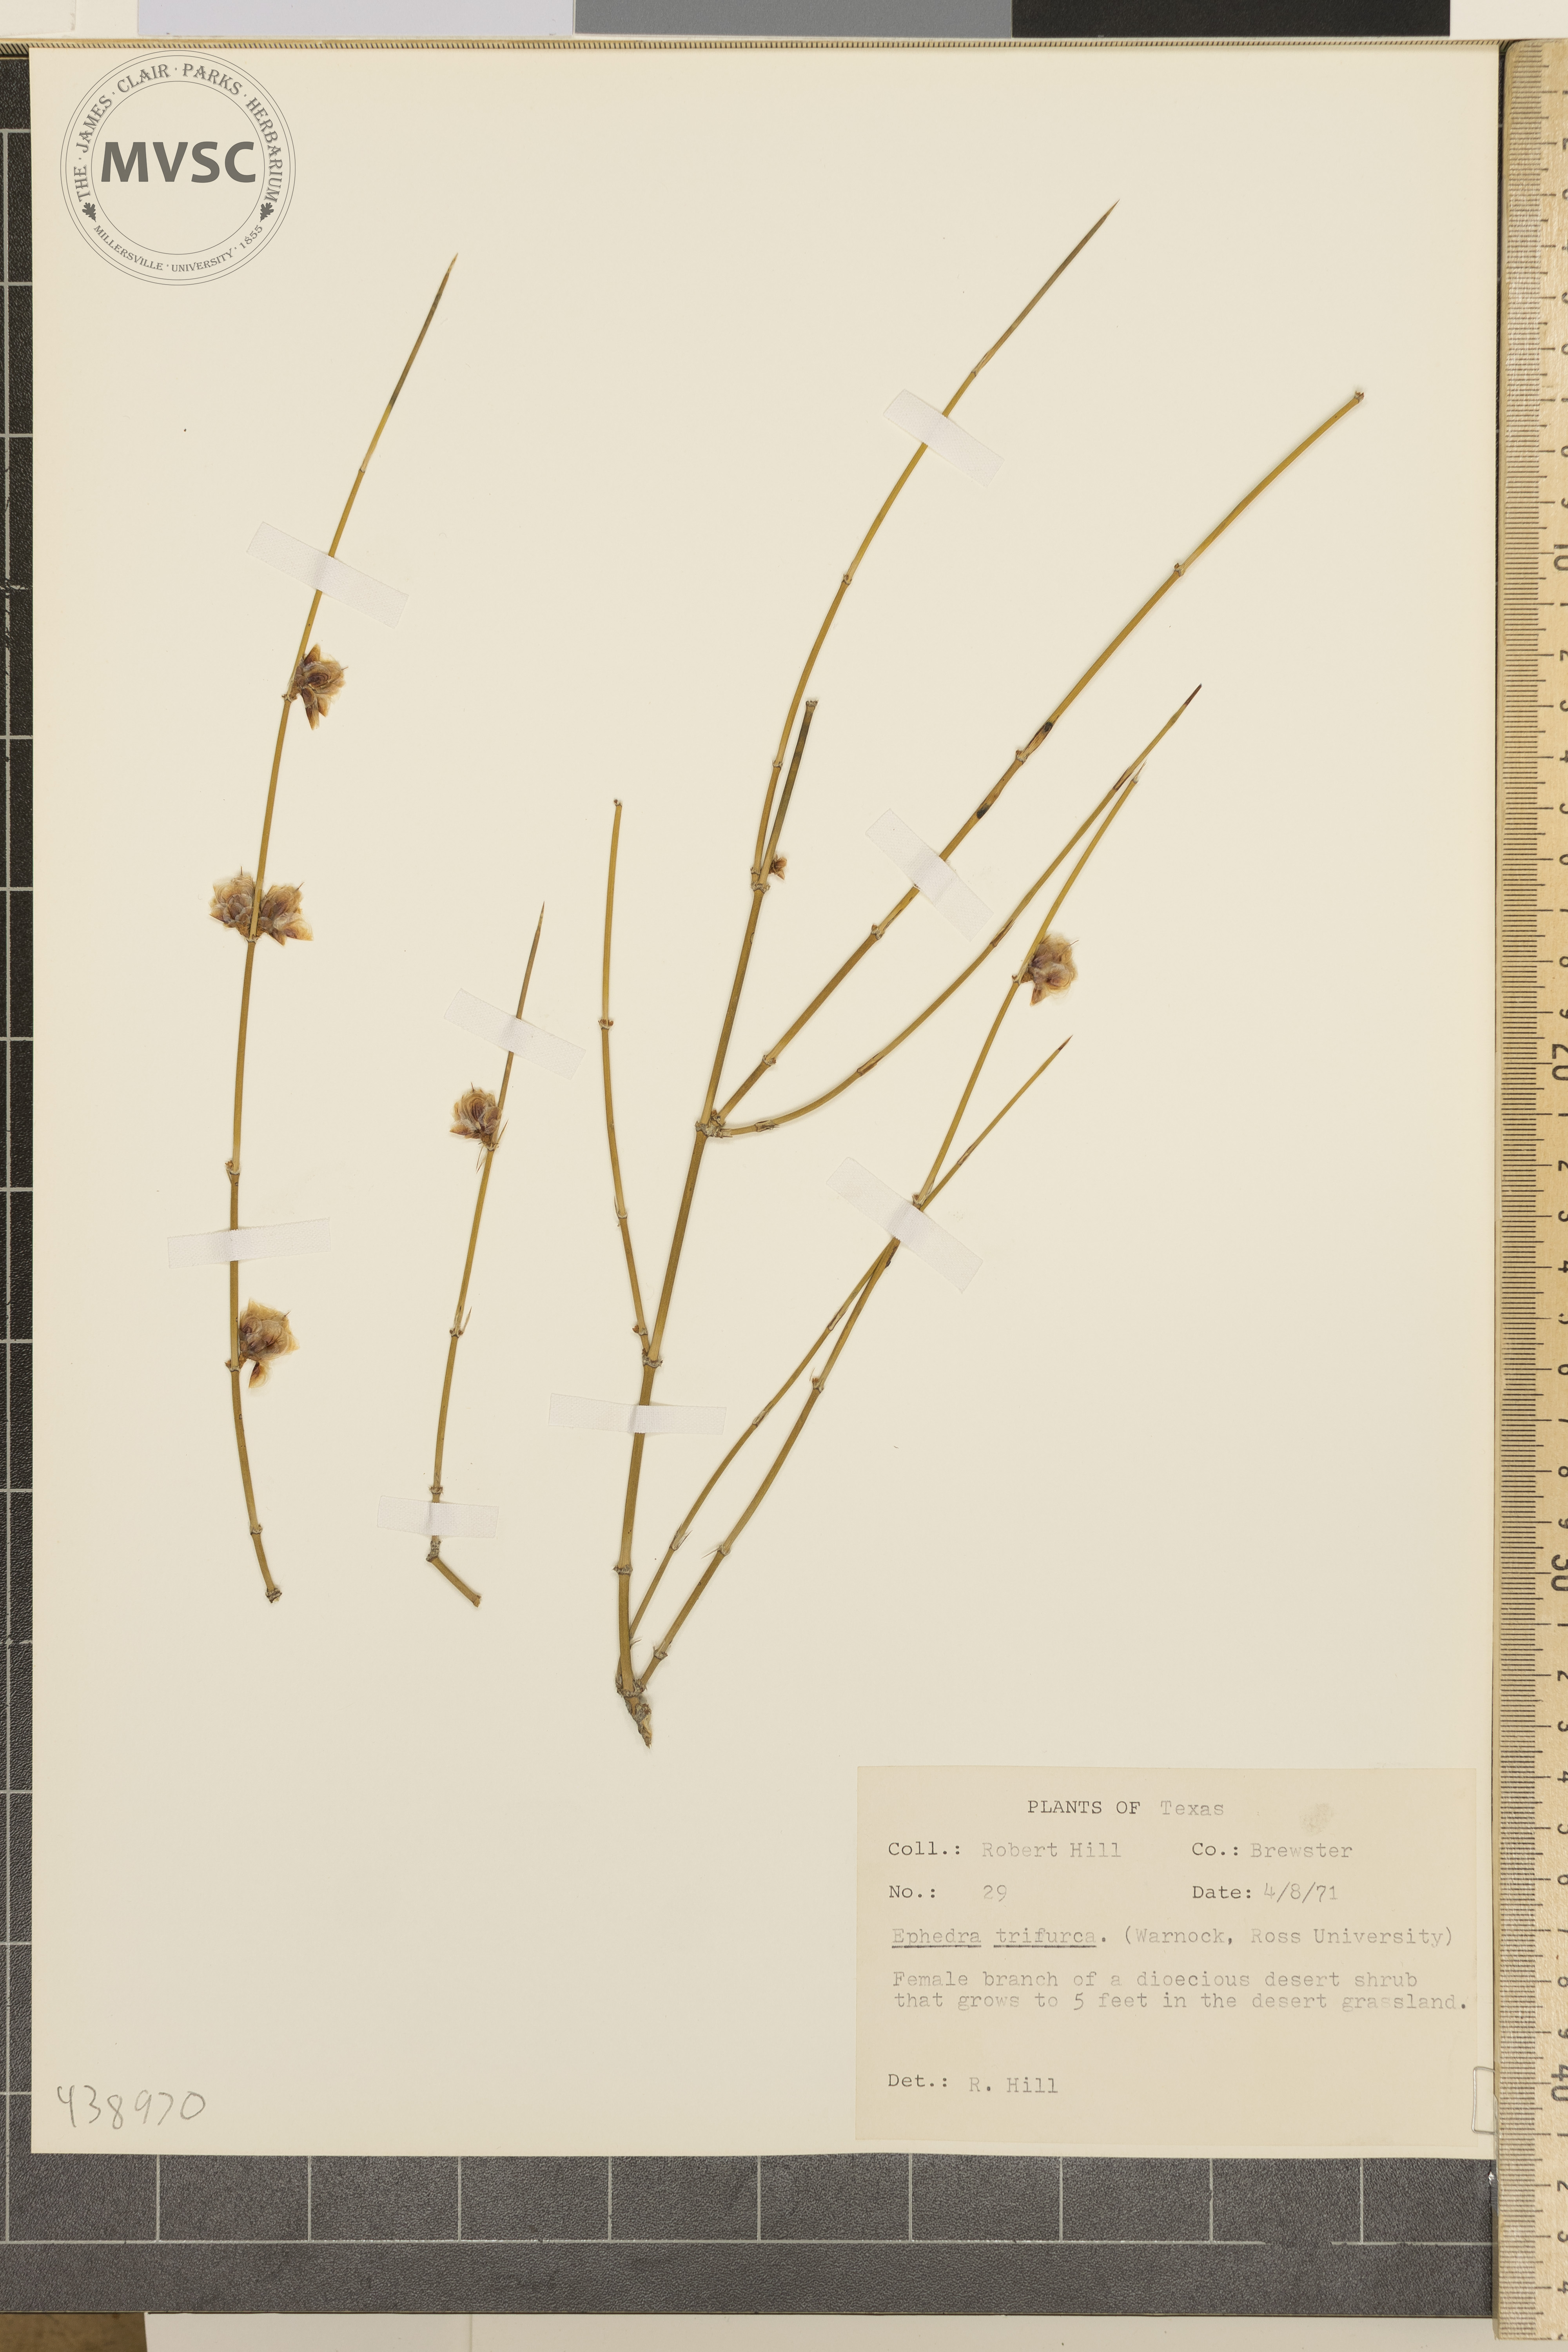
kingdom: Plantae
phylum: Tracheophyta
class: Gnetopsida
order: Ephedrales
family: Ephedraceae
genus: Ephedra
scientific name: Ephedra trifurca
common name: Mexican-tea
